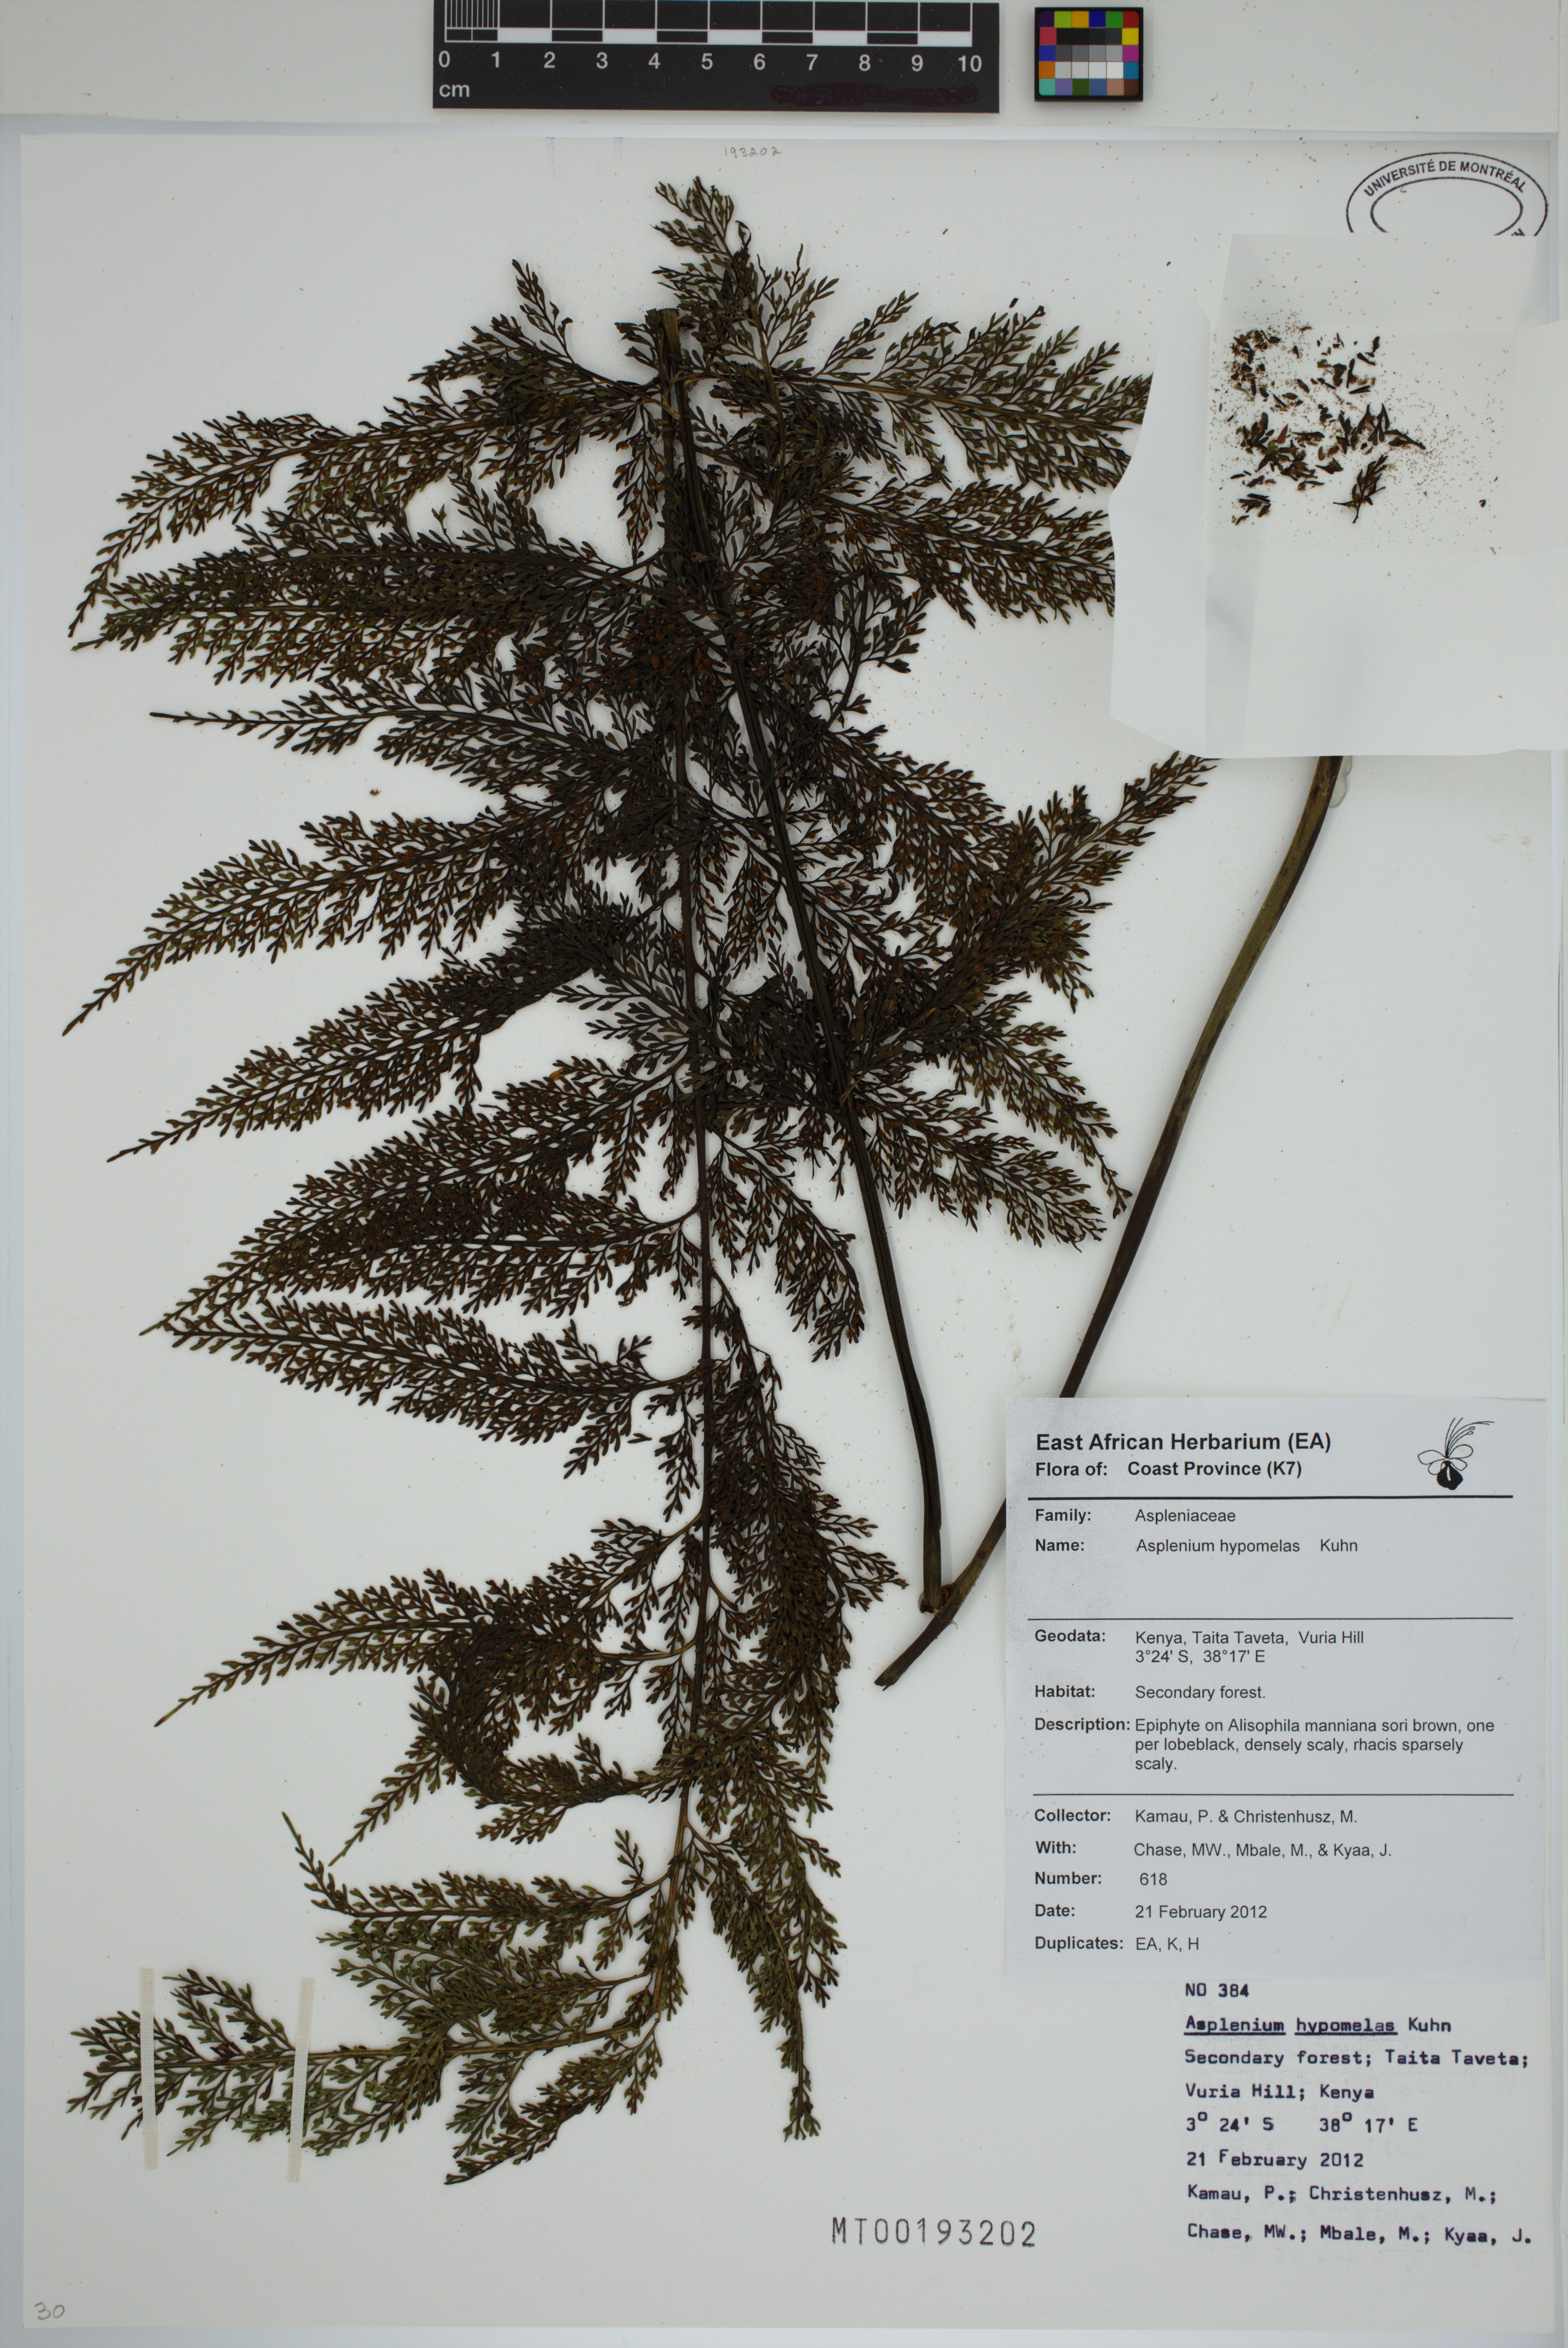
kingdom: Plantae
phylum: Tracheophyta
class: Polypodiopsida
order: Polypodiales
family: Aspleniaceae
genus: Asplenium
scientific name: Asplenium hypomelas
